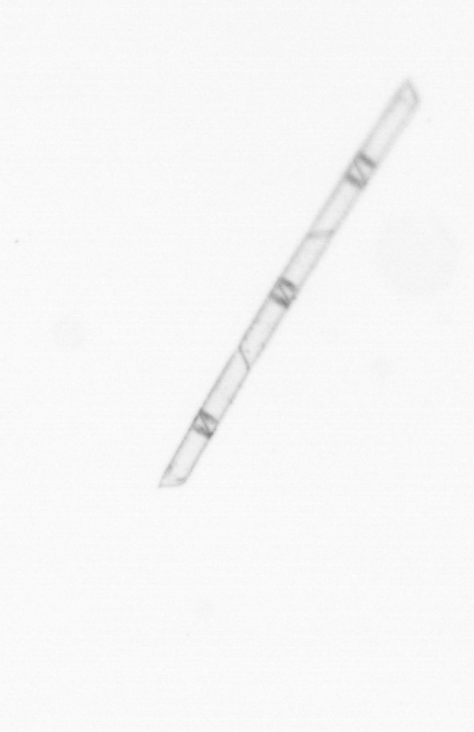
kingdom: Chromista
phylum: Ochrophyta
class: Bacillariophyceae
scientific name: Bacillariophyceae
